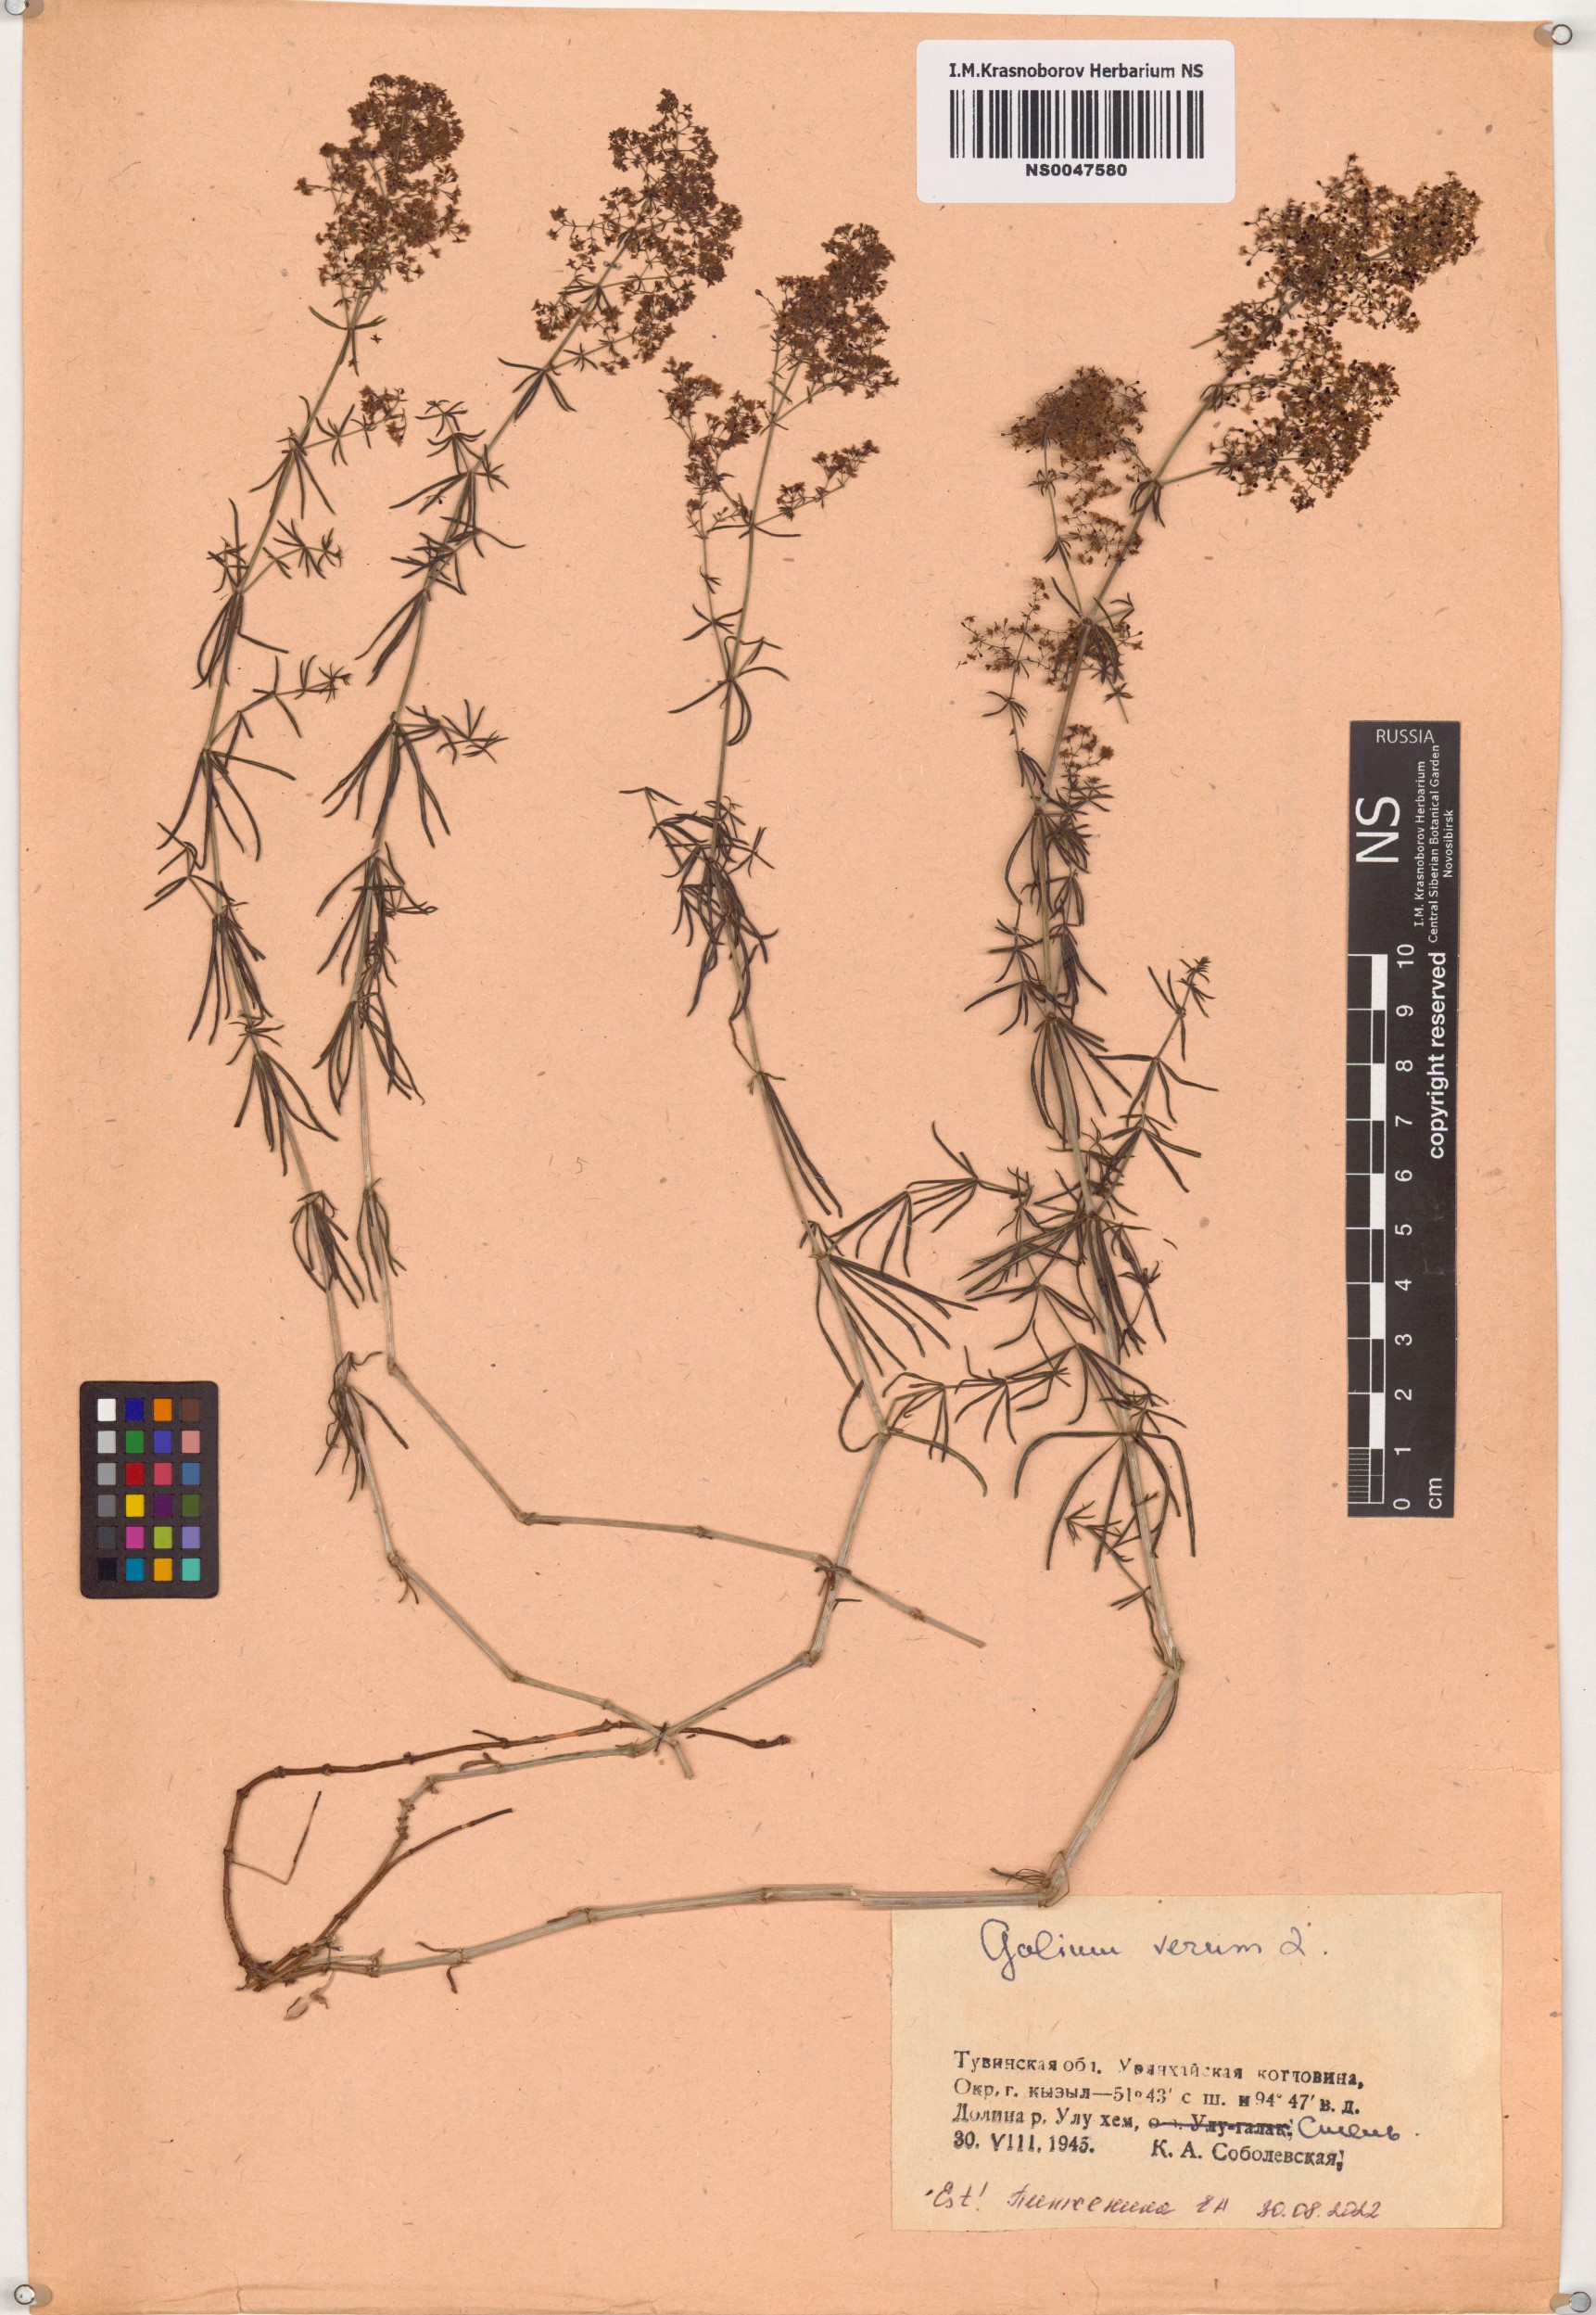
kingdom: Plantae
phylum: Tracheophyta
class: Magnoliopsida
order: Gentianales
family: Rubiaceae
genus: Galium
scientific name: Galium verum
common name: Lady's bedstraw
